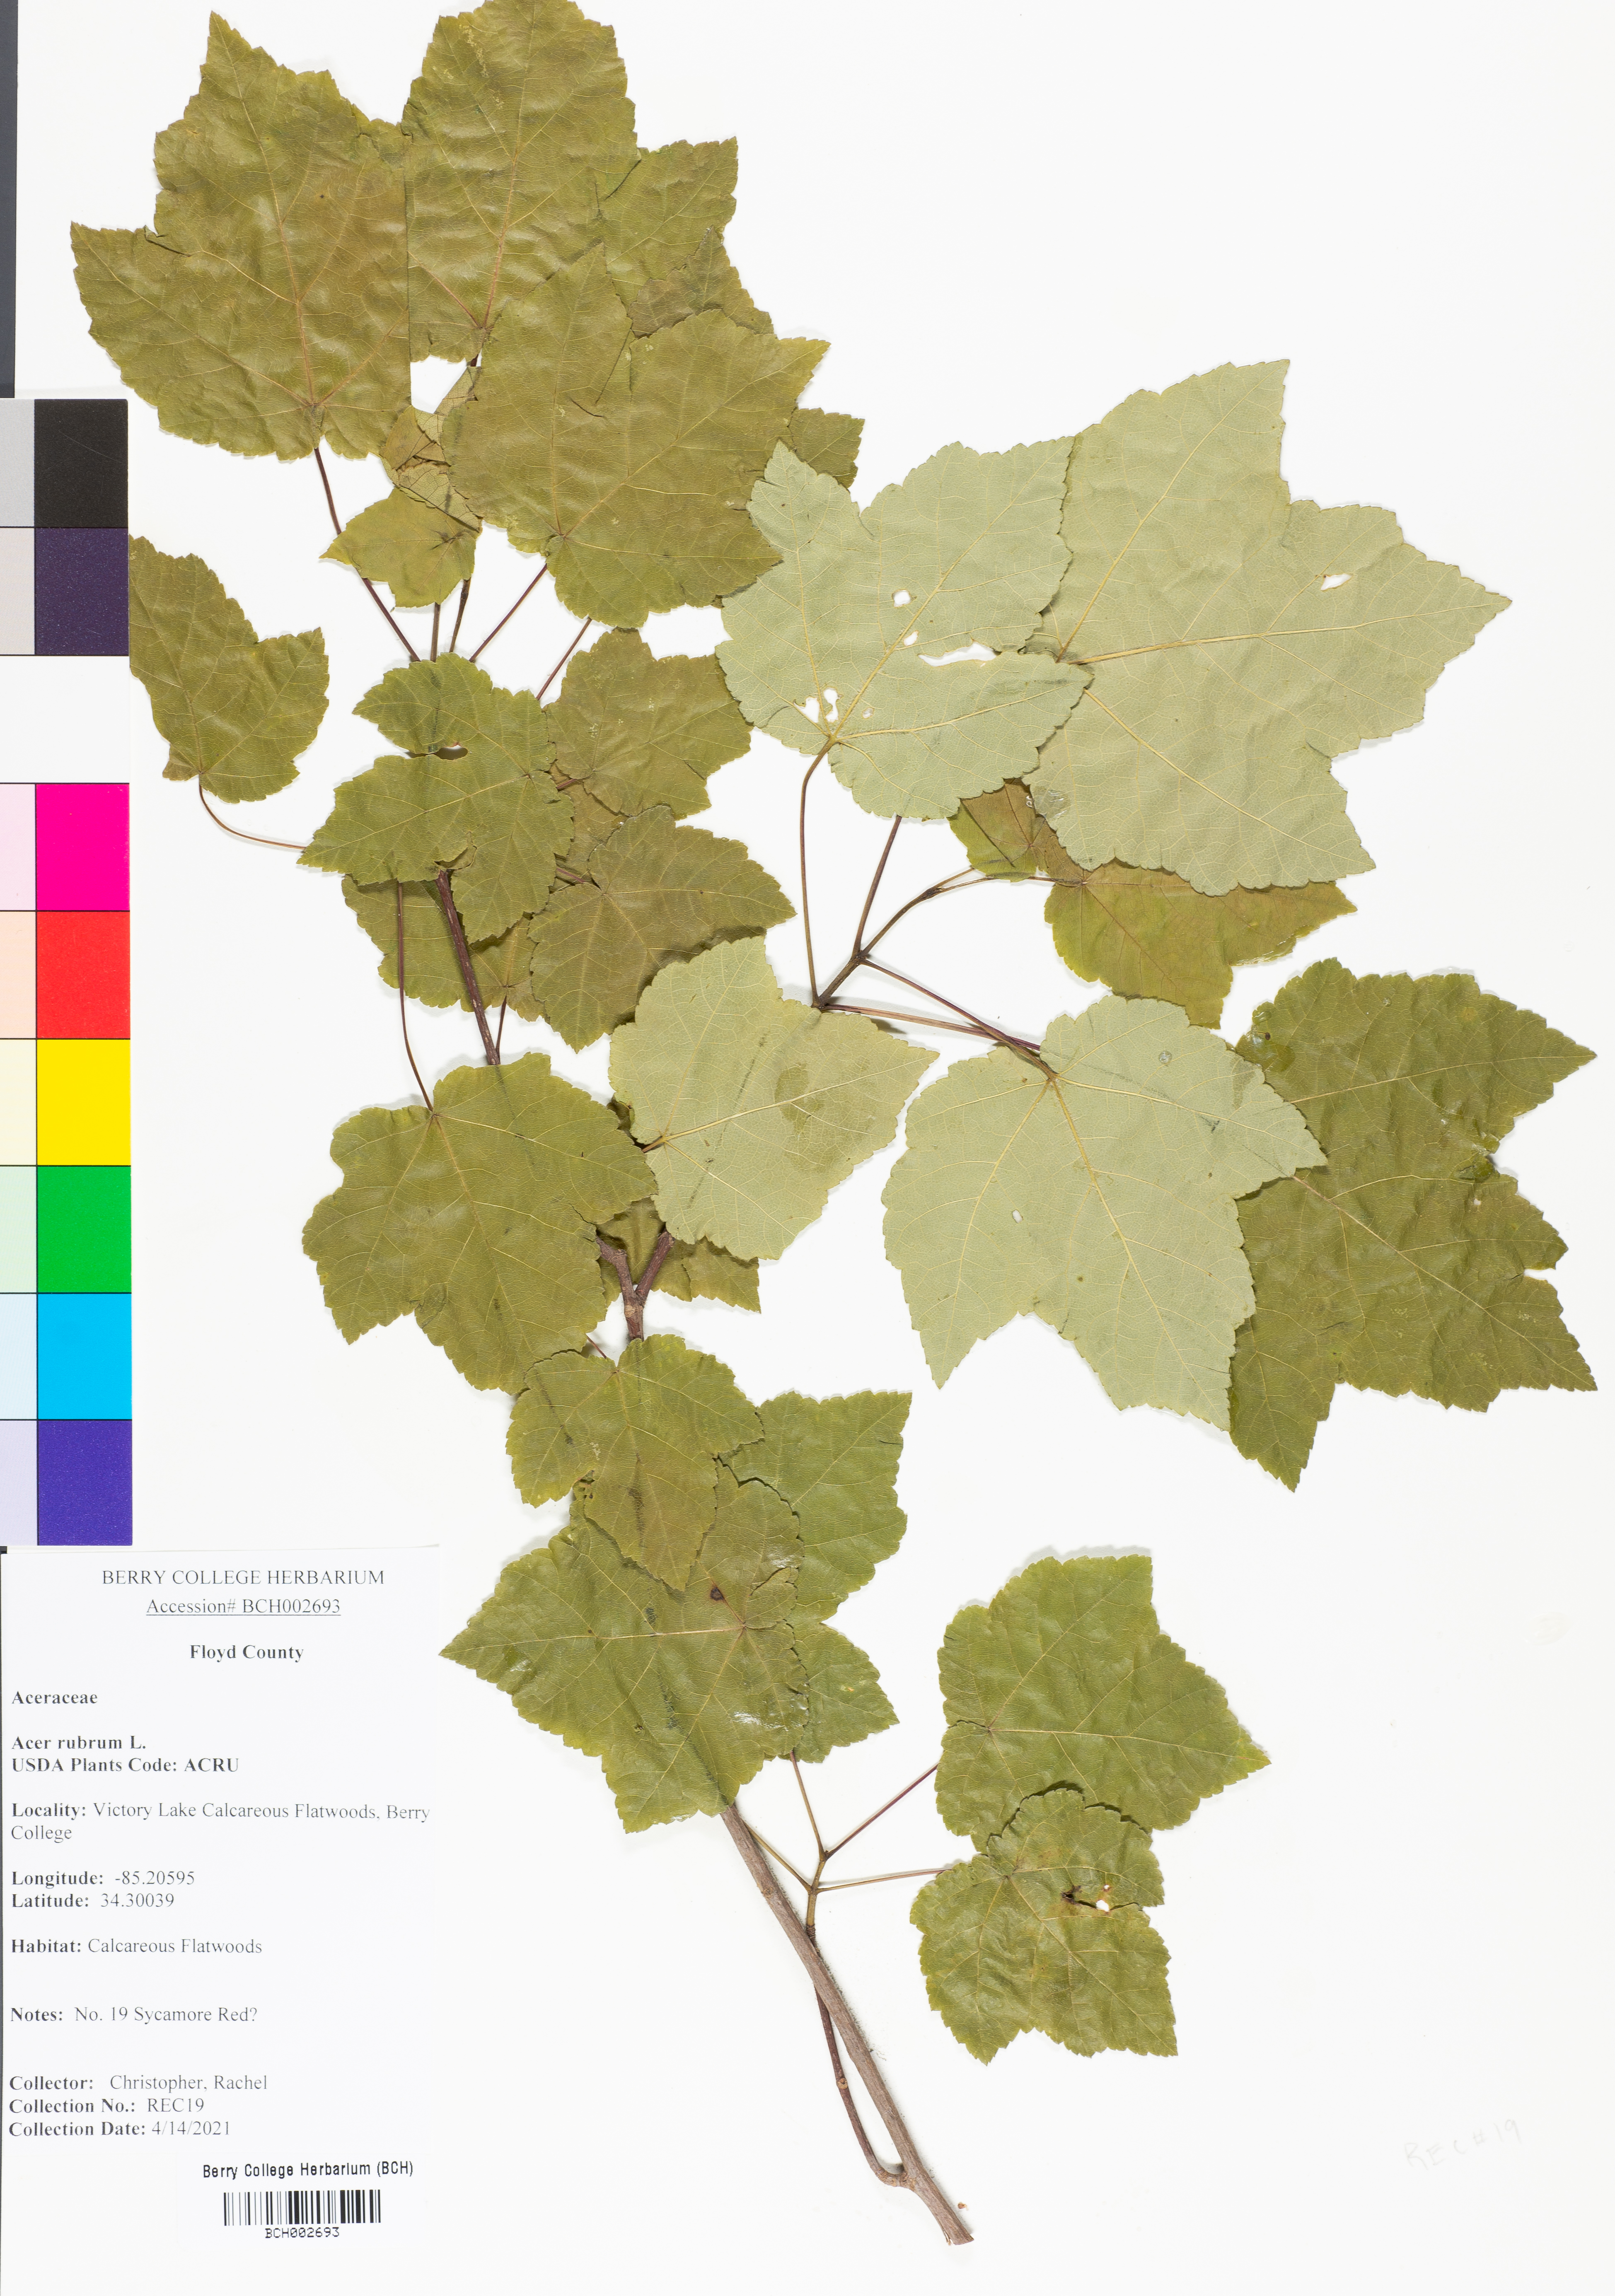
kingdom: Plantae
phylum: Tracheophyta
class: Magnoliopsida
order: Sapindales
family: Sapindaceae
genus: Acer
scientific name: Acer rubrum
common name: Red maple
